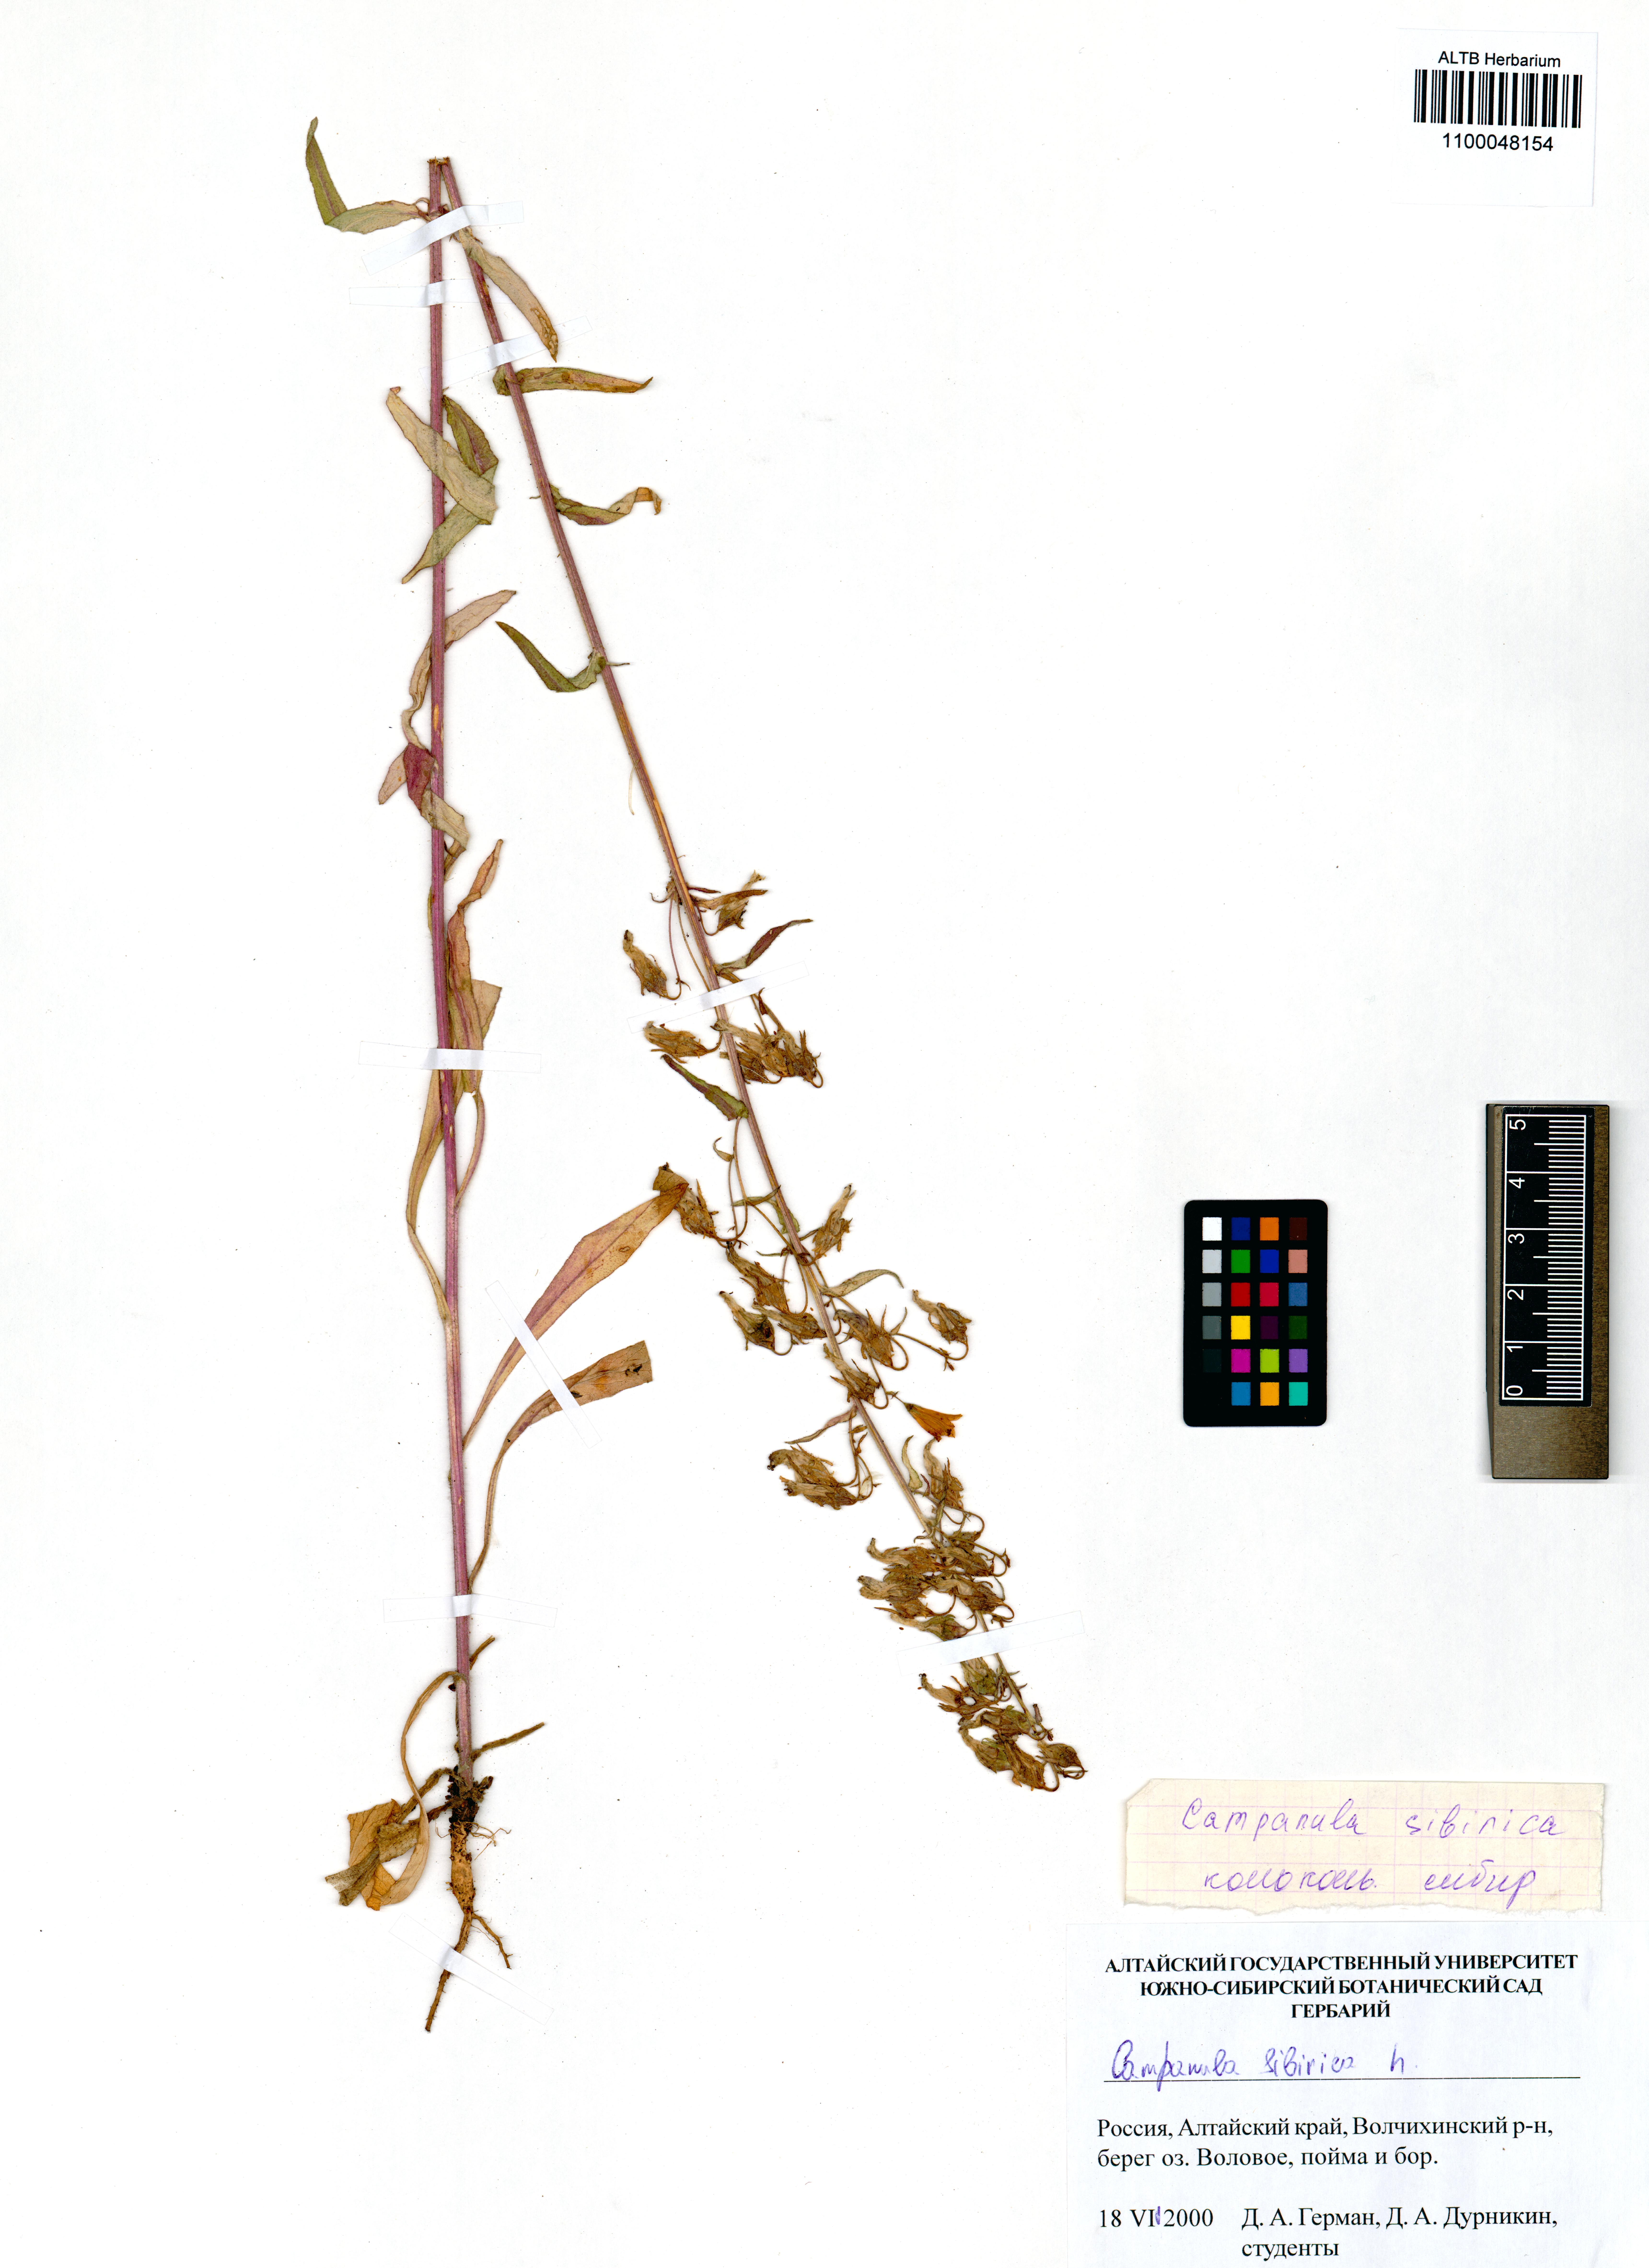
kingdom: Plantae
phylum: Tracheophyta
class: Magnoliopsida
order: Asterales
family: Campanulaceae
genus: Campanula
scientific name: Campanula sibirica
